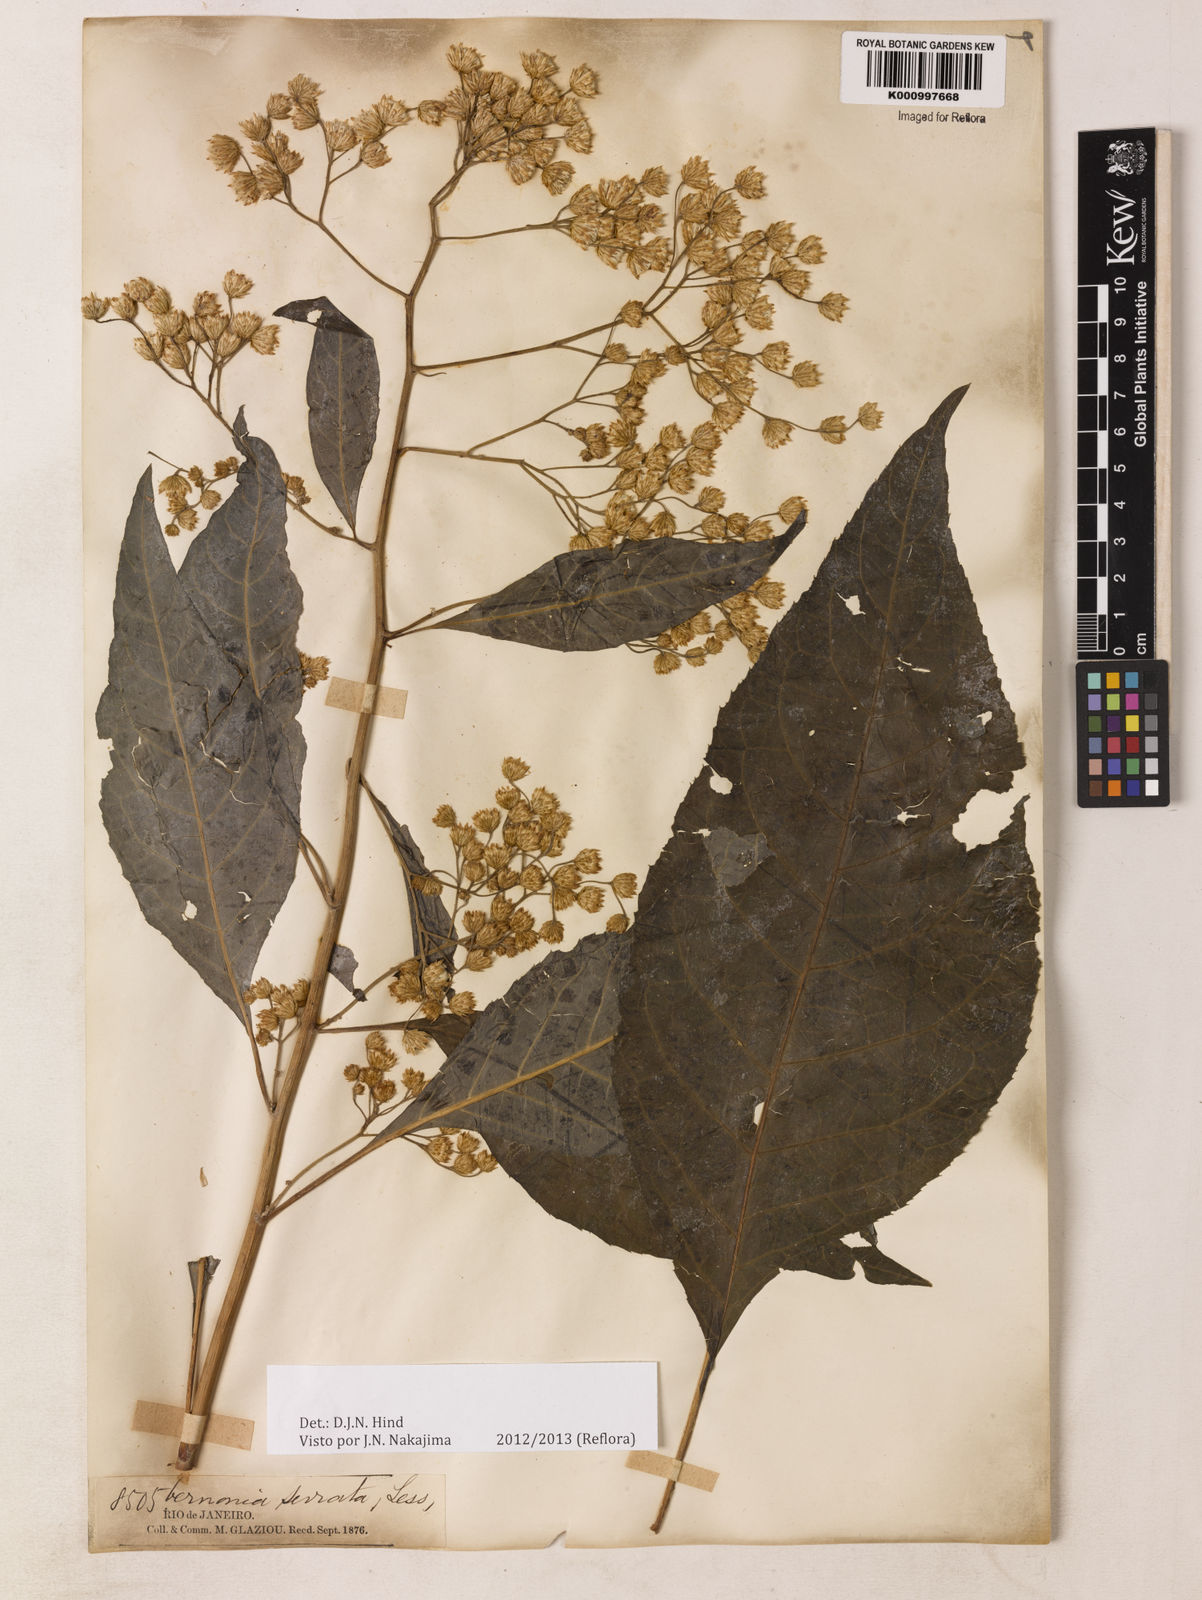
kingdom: Plantae
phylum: Tracheophyta
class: Magnoliopsida
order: Asterales
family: Asteraceae
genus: Dasyanthina
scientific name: Dasyanthina serrata
